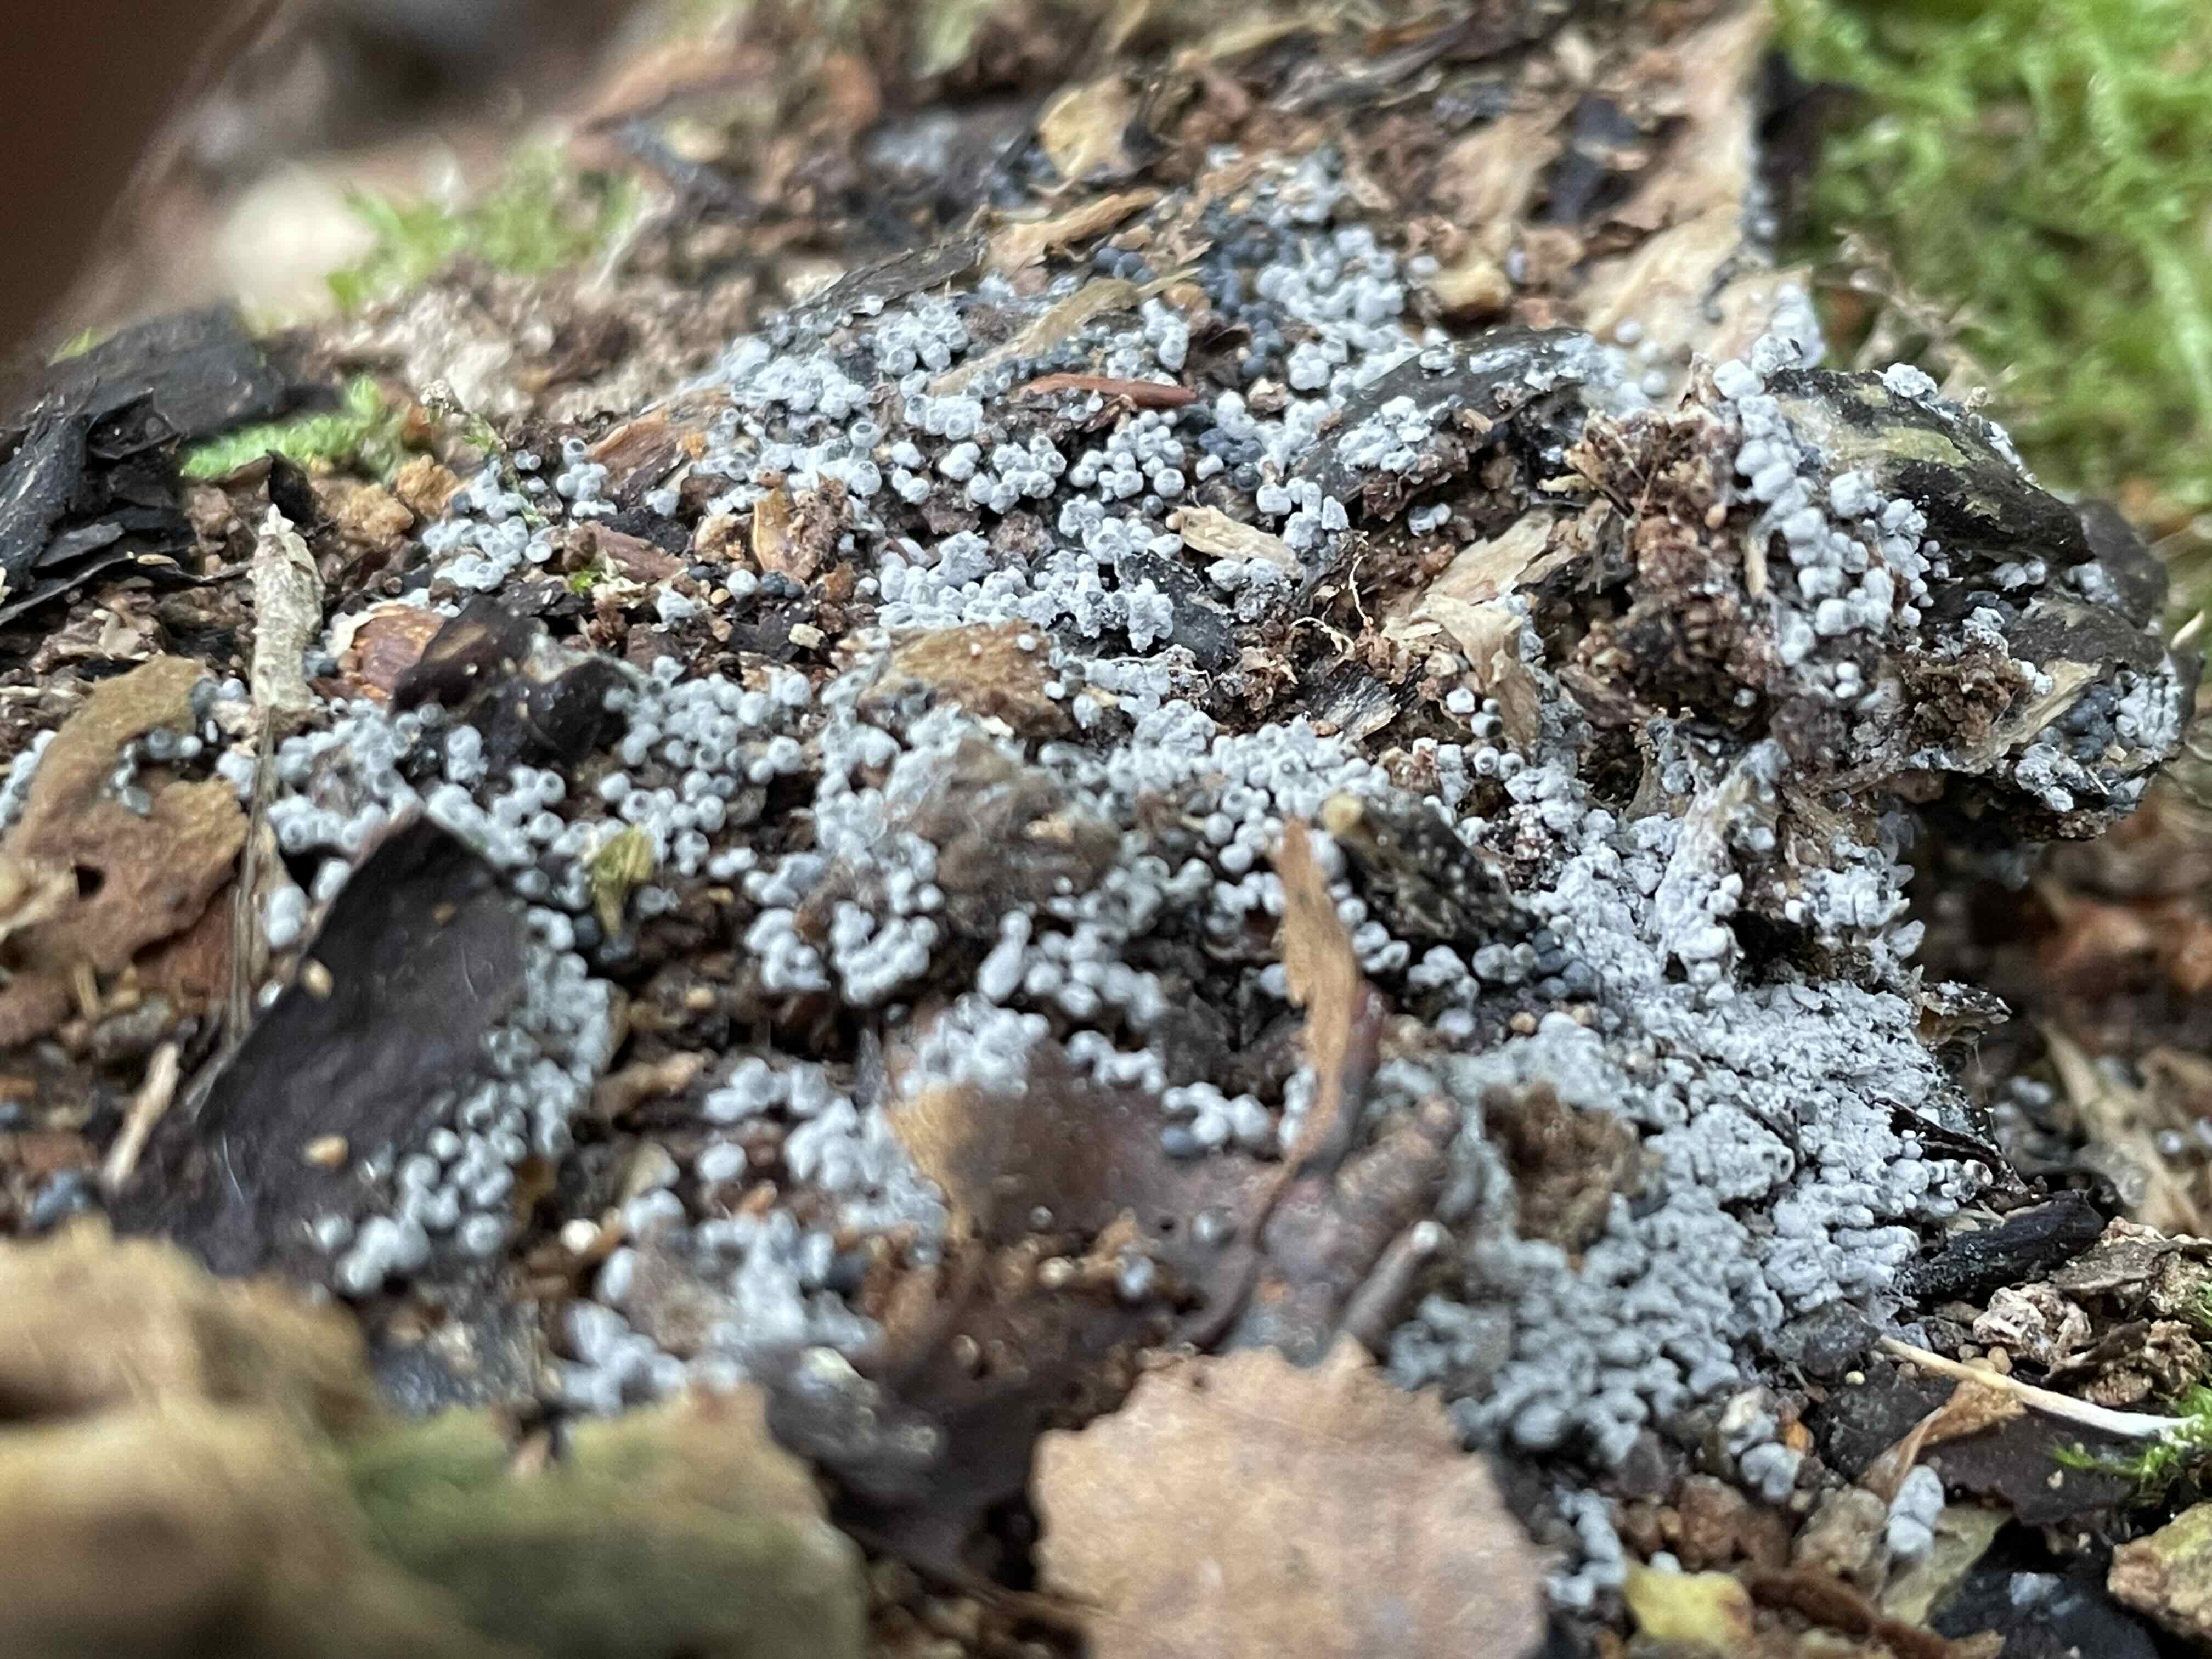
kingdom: Fungi
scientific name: Fungi
